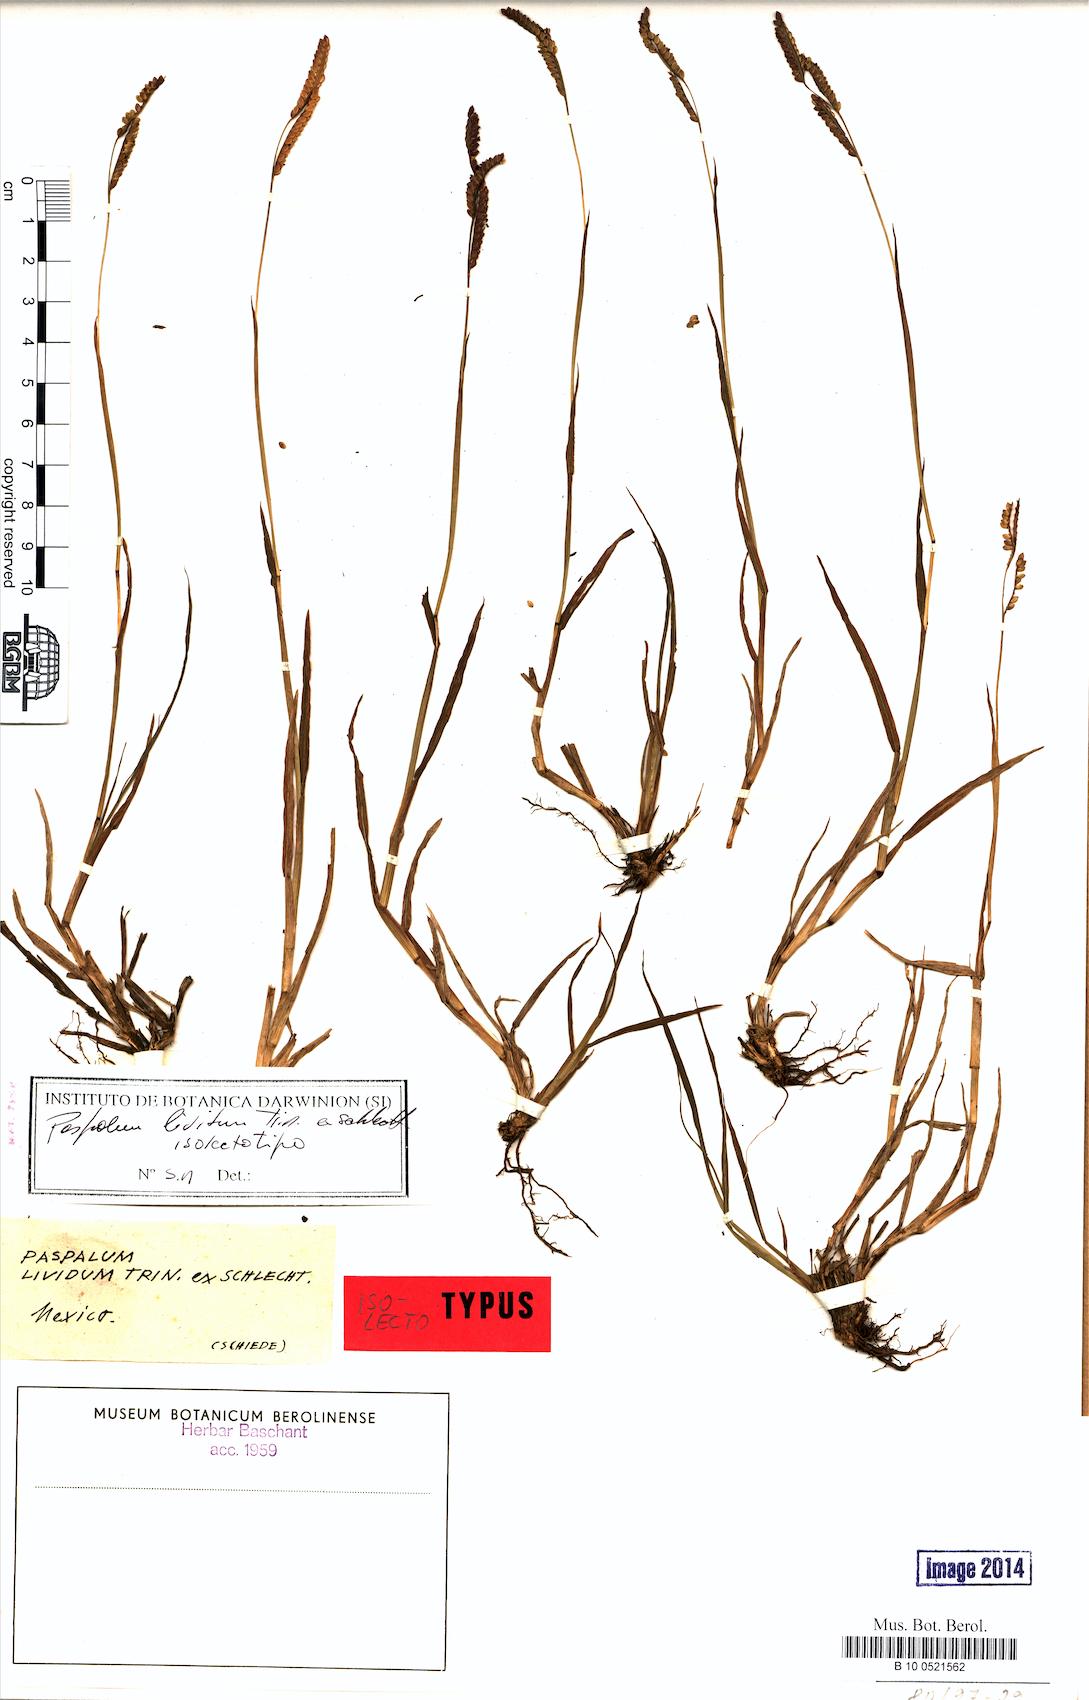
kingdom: Plantae
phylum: Tracheophyta
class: Liliopsida
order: Poales
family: Poaceae
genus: Paspalum
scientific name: Paspalum denticulatum
